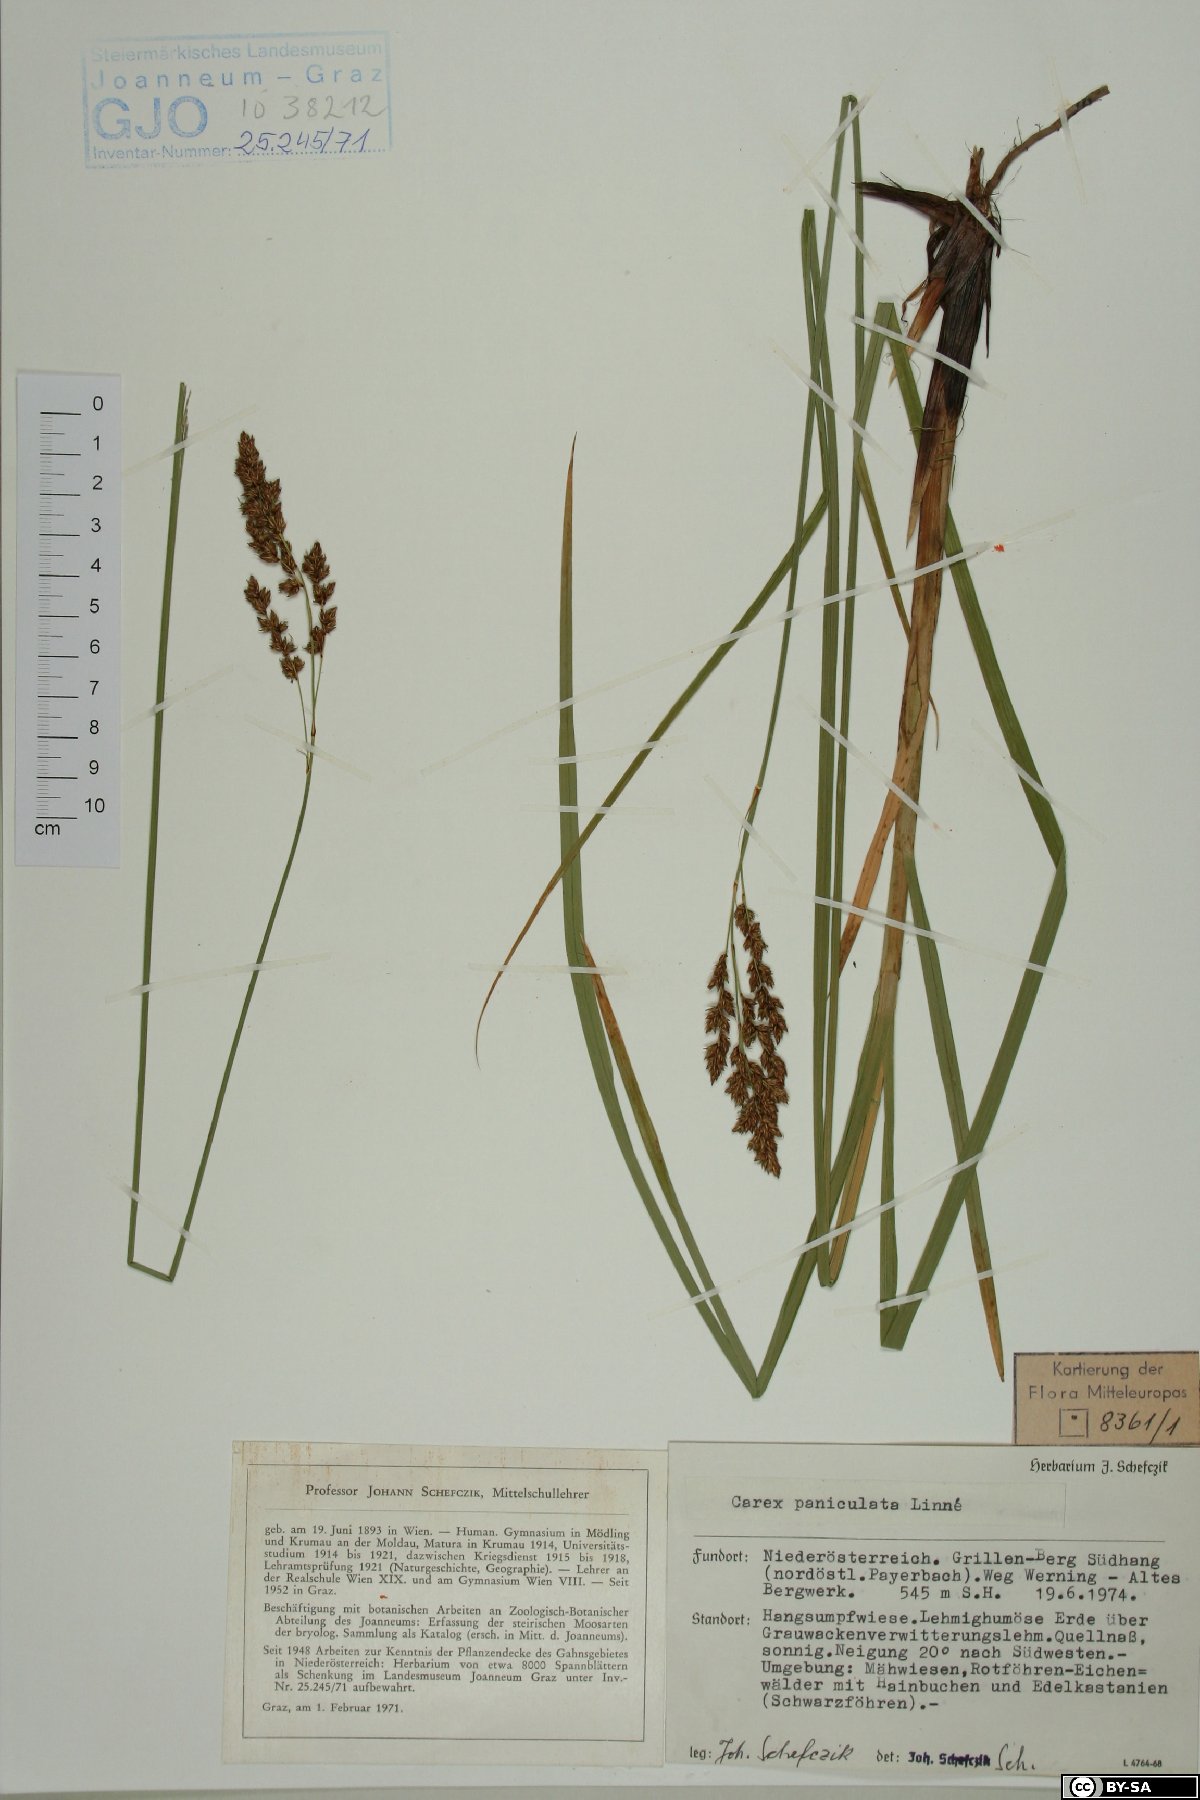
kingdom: Plantae
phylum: Tracheophyta
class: Liliopsida
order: Poales
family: Cyperaceae
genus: Carex
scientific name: Carex paniculata
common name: Greater tussock-sedge
